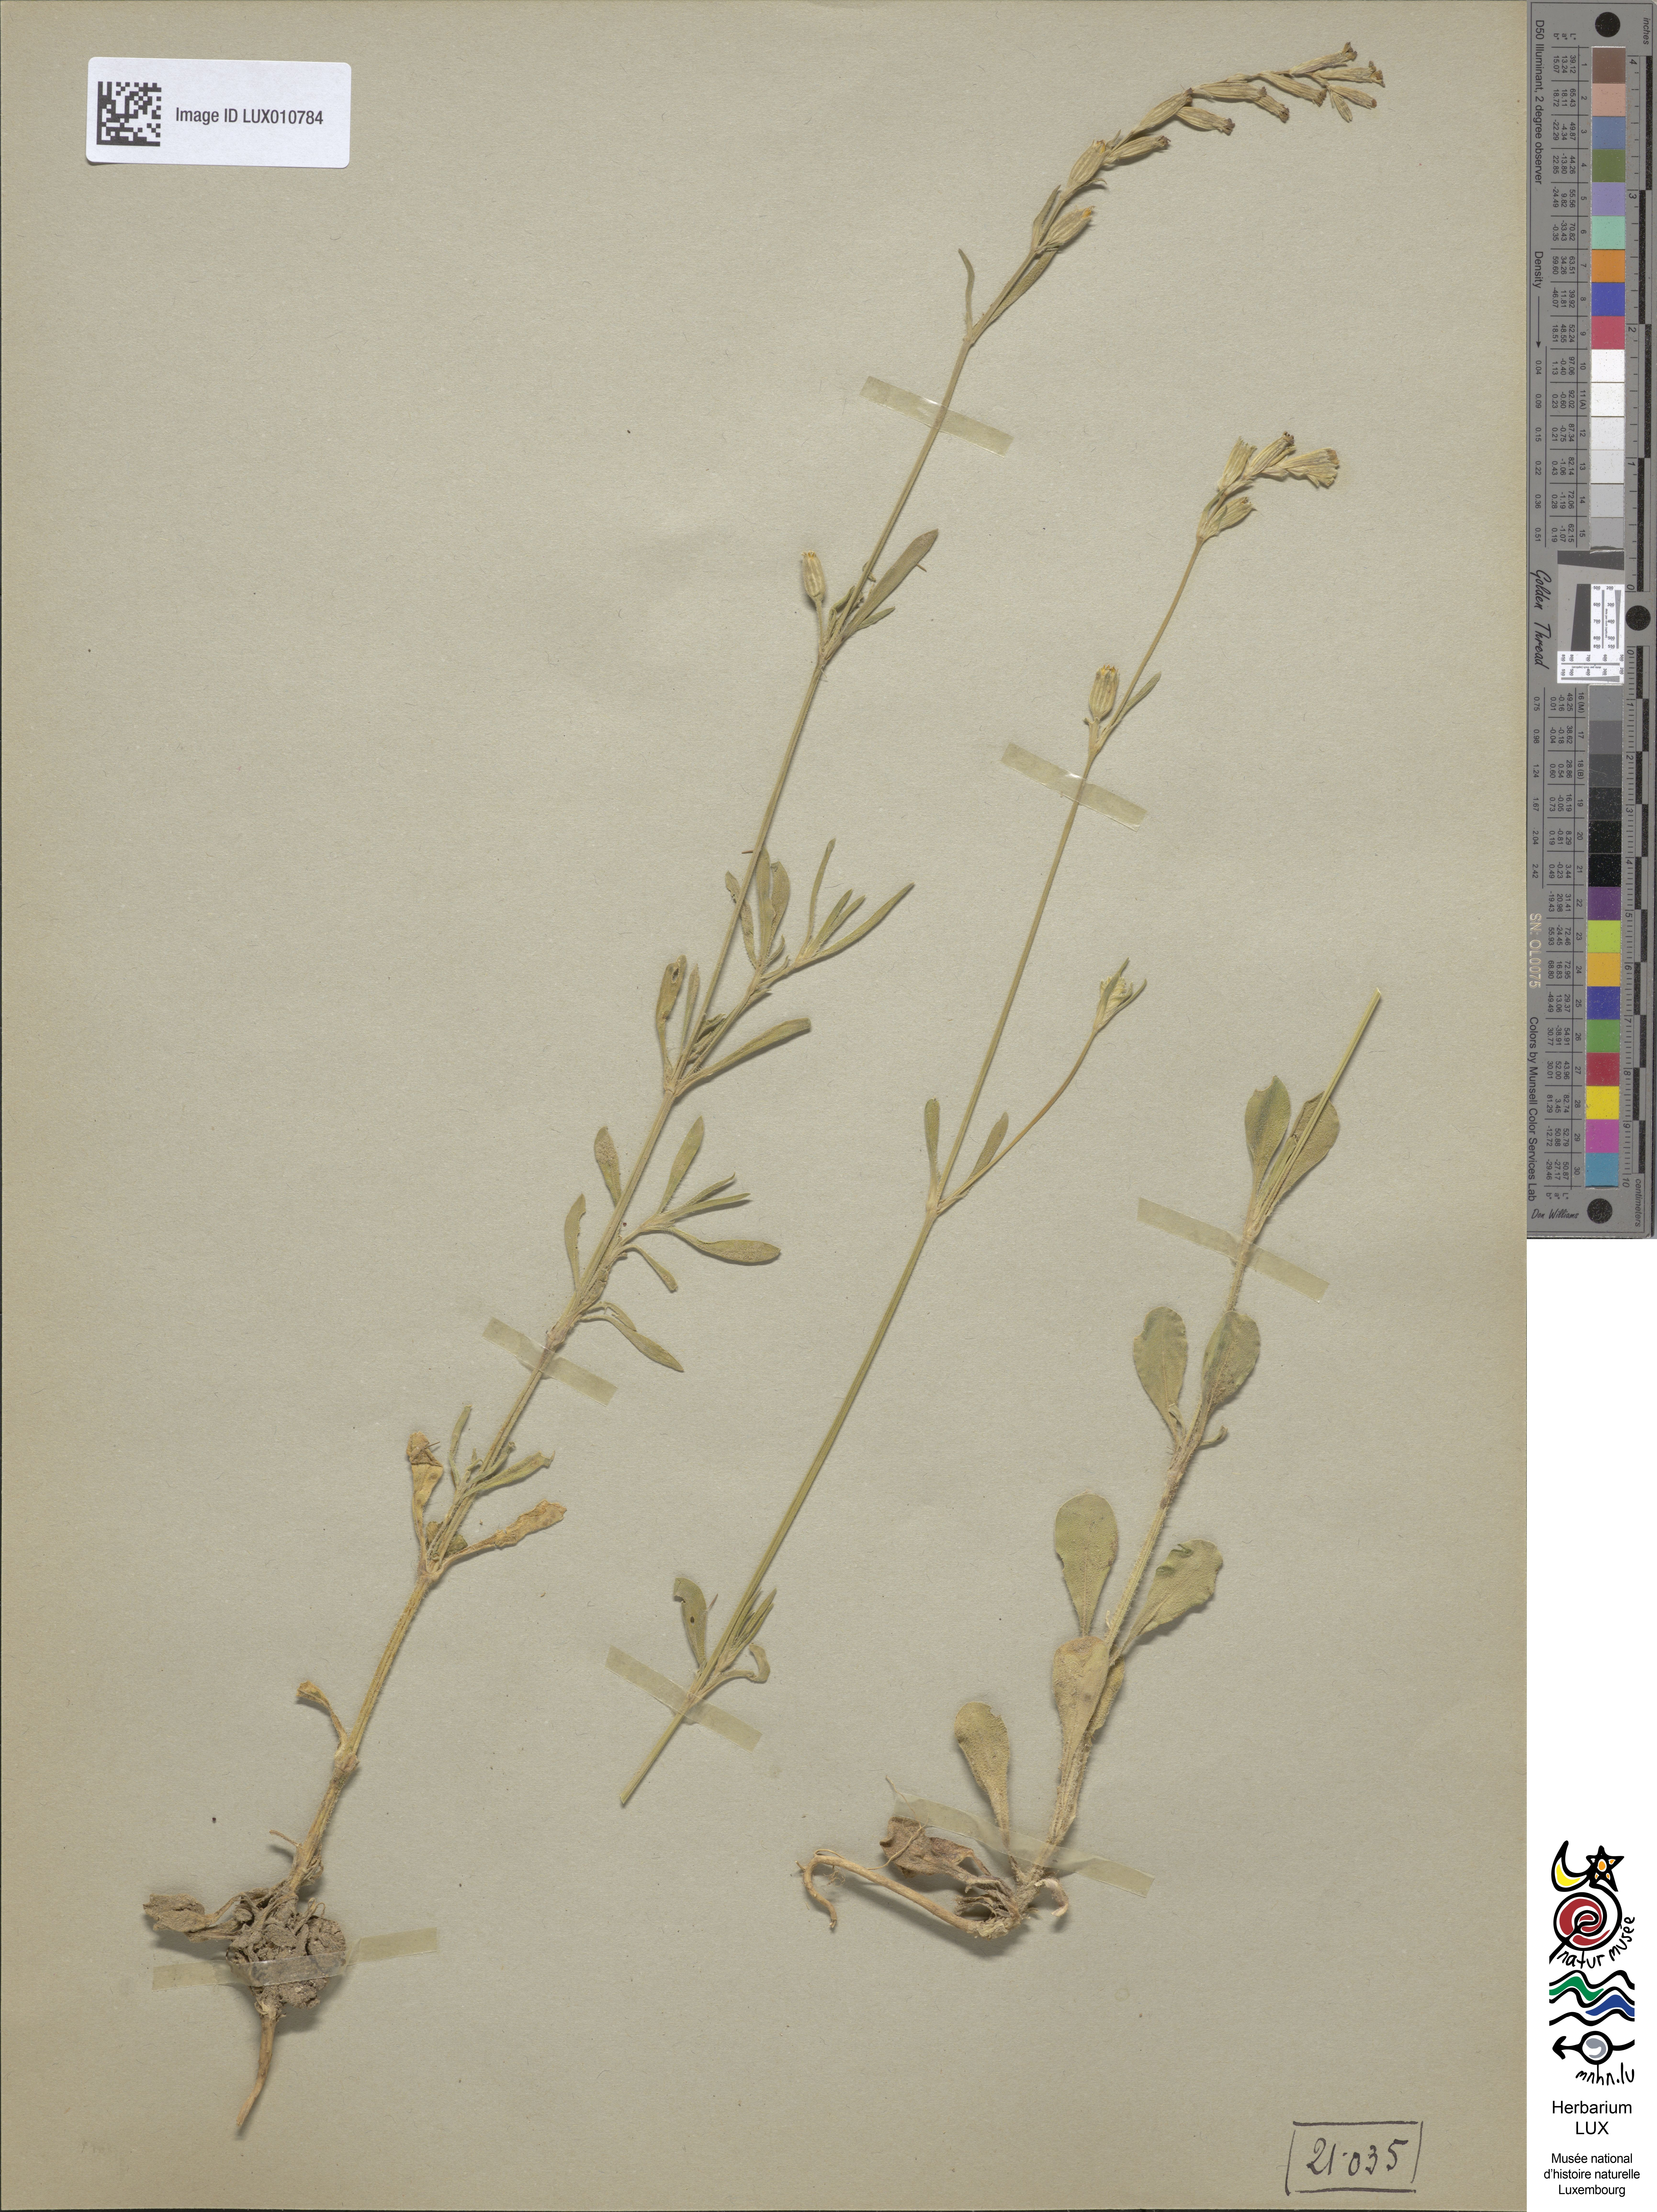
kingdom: Plantae
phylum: Tracheophyta
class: Magnoliopsida
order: Caryophyllales
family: Caryophyllaceae
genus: Silene
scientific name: Silene nocturna
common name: Mediterranean catchfly
